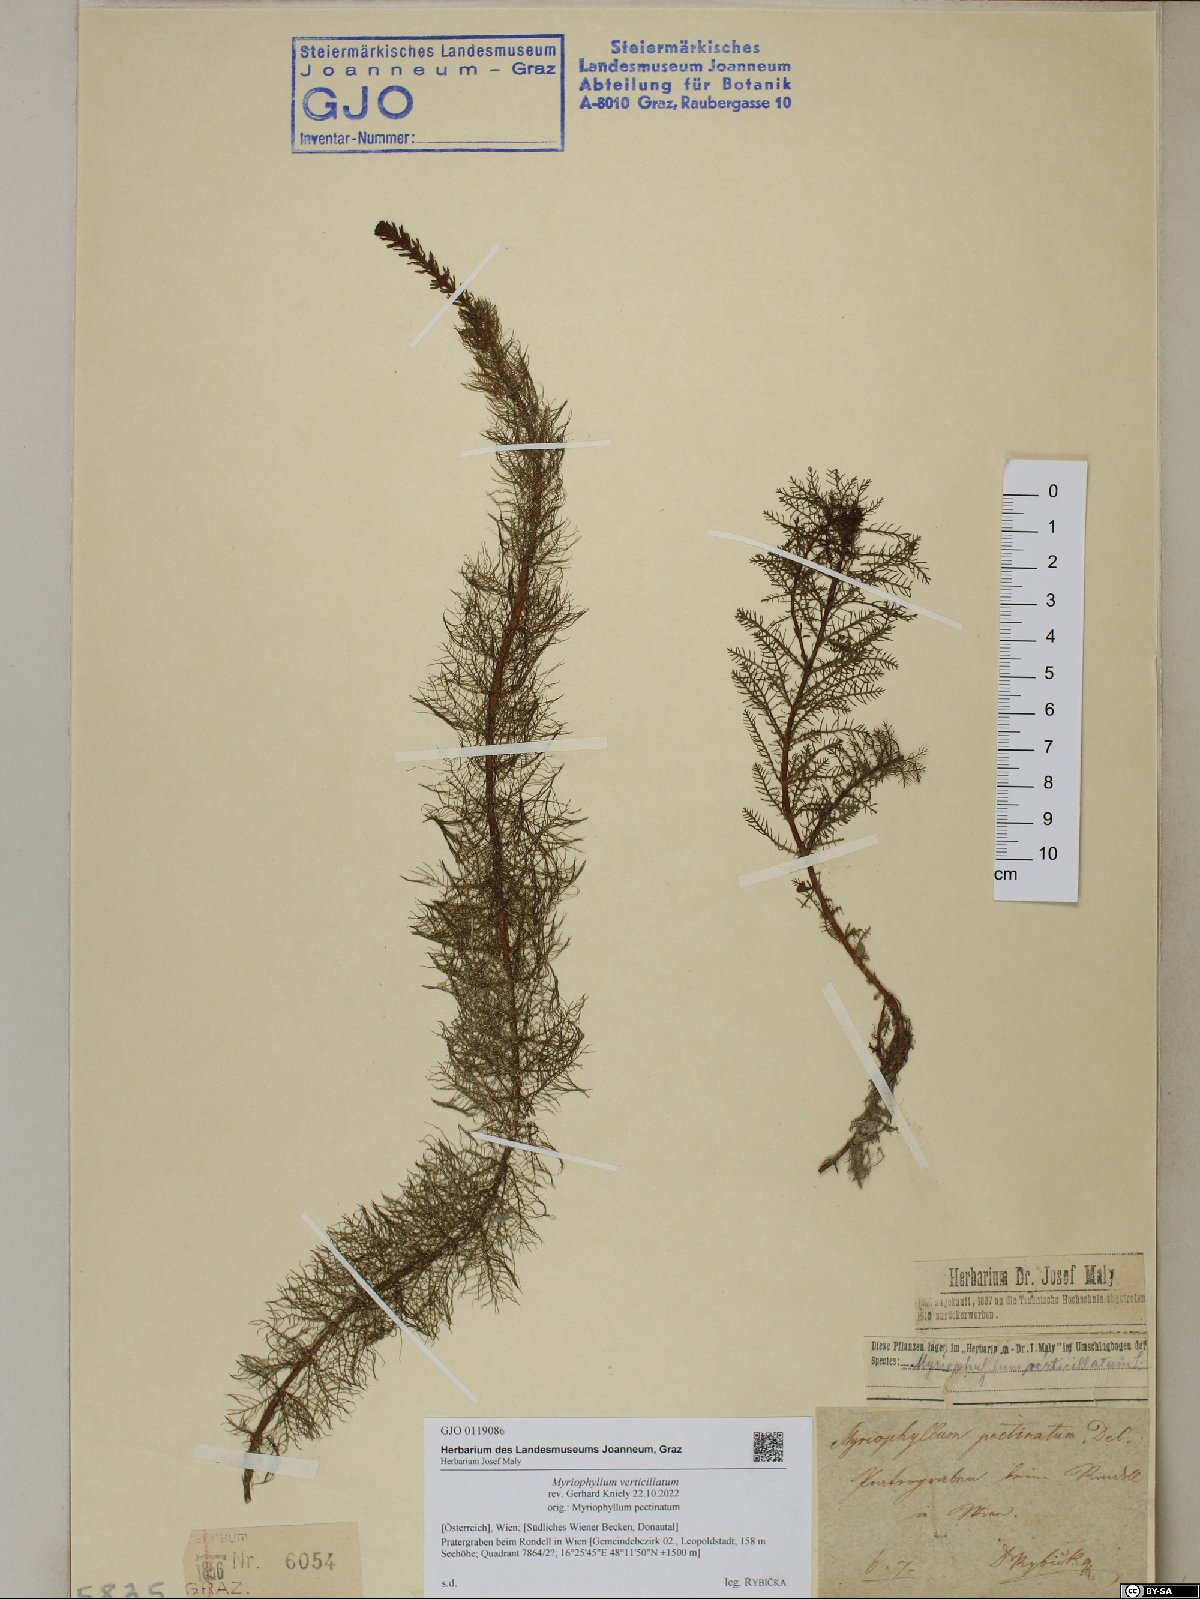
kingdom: Plantae
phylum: Tracheophyta
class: Magnoliopsida
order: Saxifragales
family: Haloragaceae
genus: Myriophyllum
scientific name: Myriophyllum verticillatum
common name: Whorled water-milfoil
